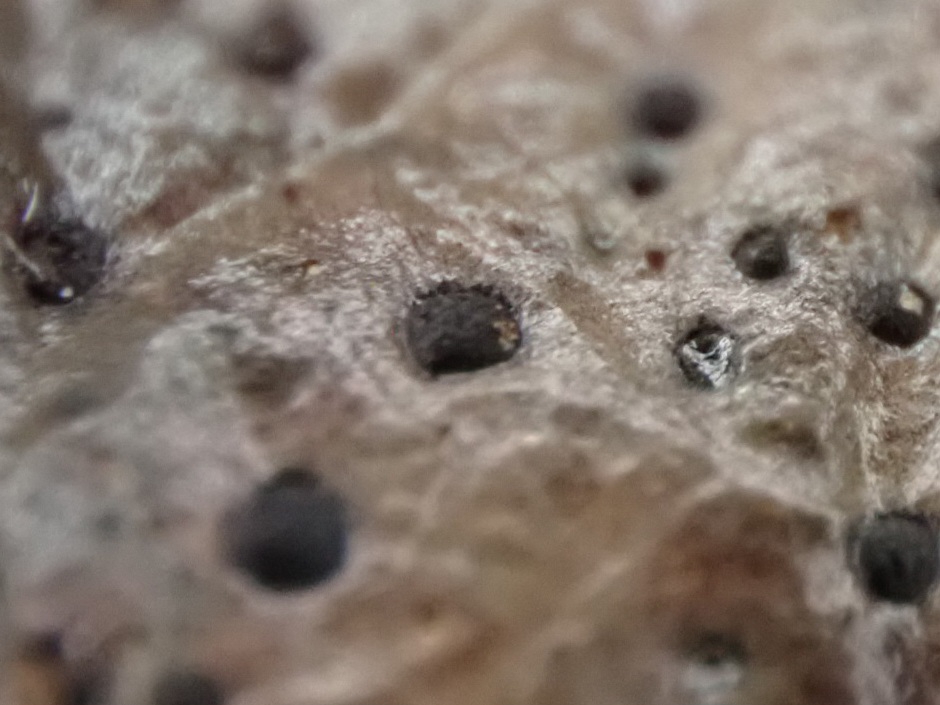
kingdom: Fungi
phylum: Ascomycota
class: Leotiomycetes
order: Helotiales
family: Cenangiaceae
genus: Trochila
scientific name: Trochila ilicina
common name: kristtorn-lågskive
